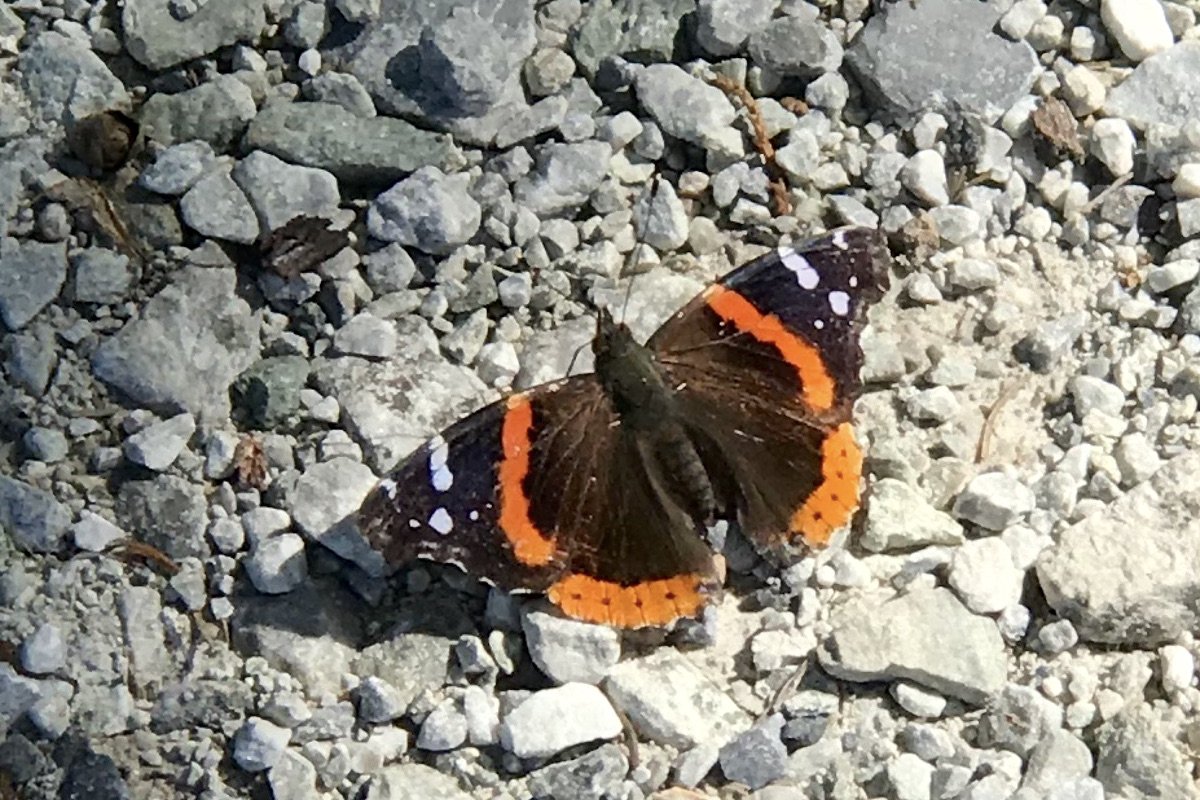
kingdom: Animalia
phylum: Arthropoda
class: Insecta
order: Lepidoptera
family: Nymphalidae
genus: Vanessa
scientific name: Vanessa atalanta
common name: Red Admiral
